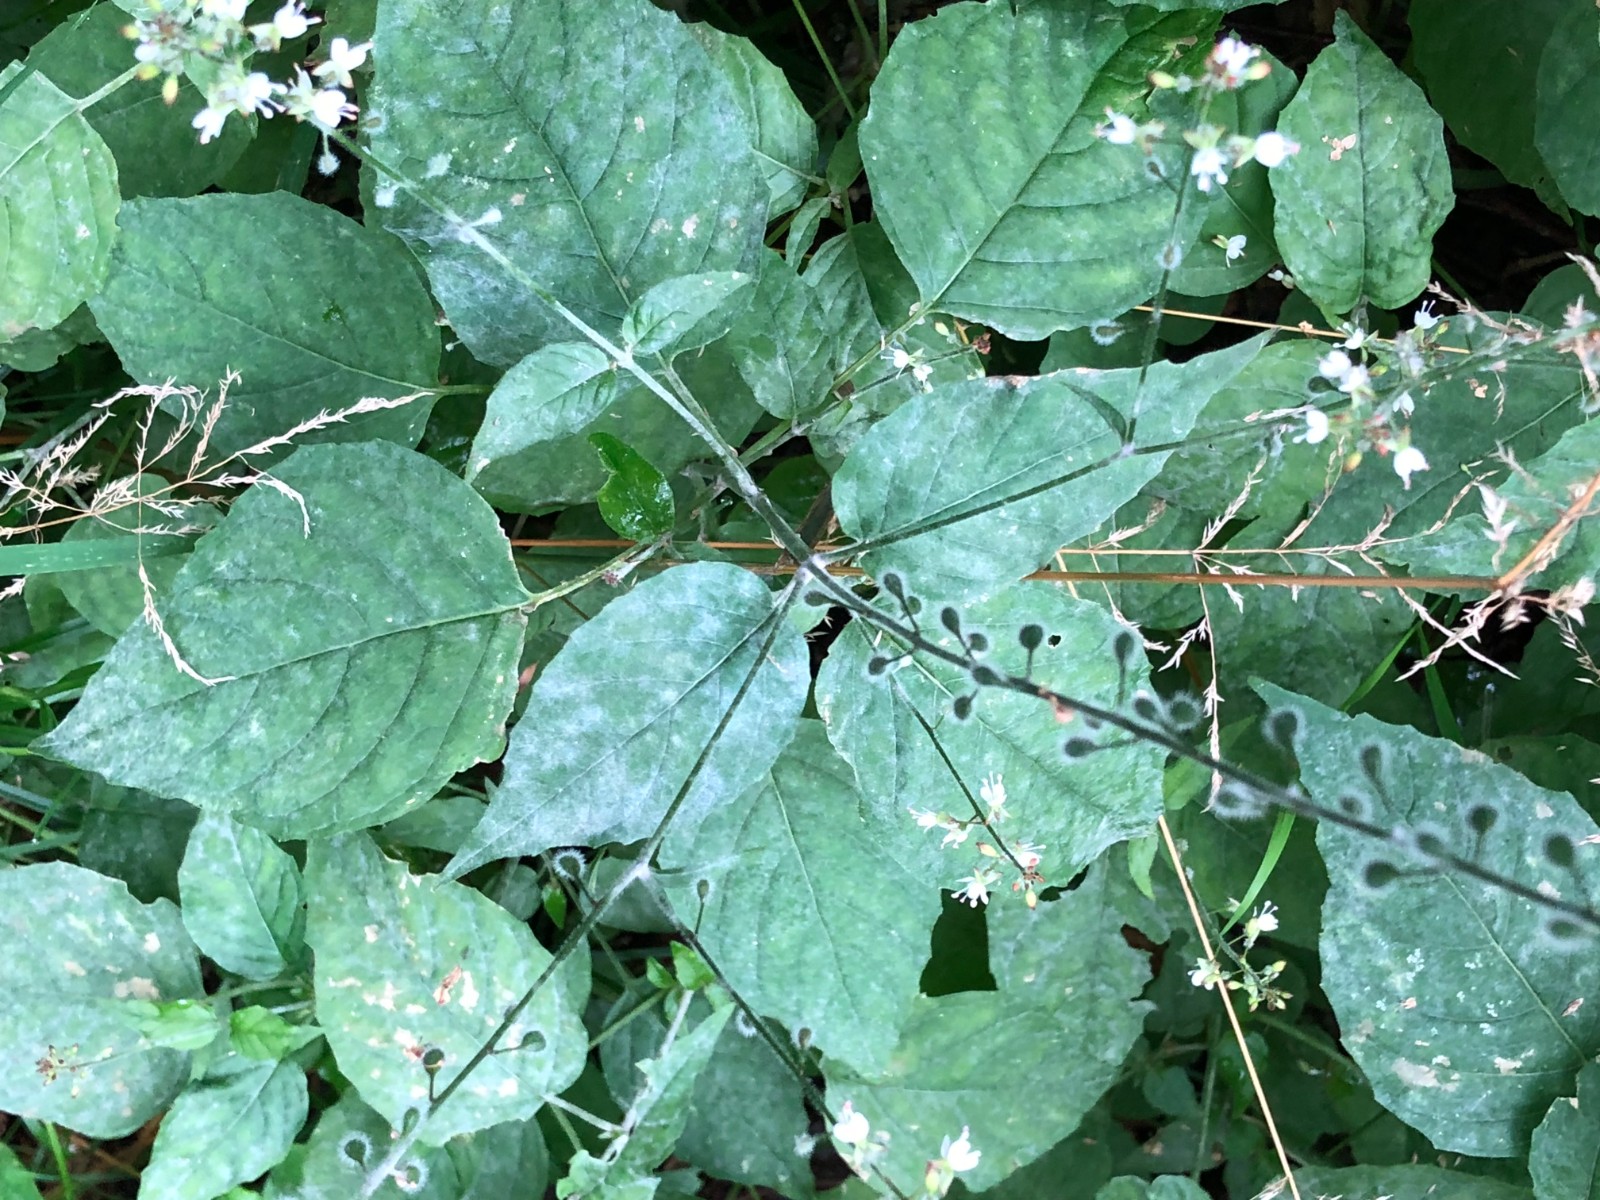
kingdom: Fungi
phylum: Ascomycota
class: Leotiomycetes
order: Helotiales
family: Erysiphaceae
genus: Erysiphe
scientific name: Erysiphe circaeae
